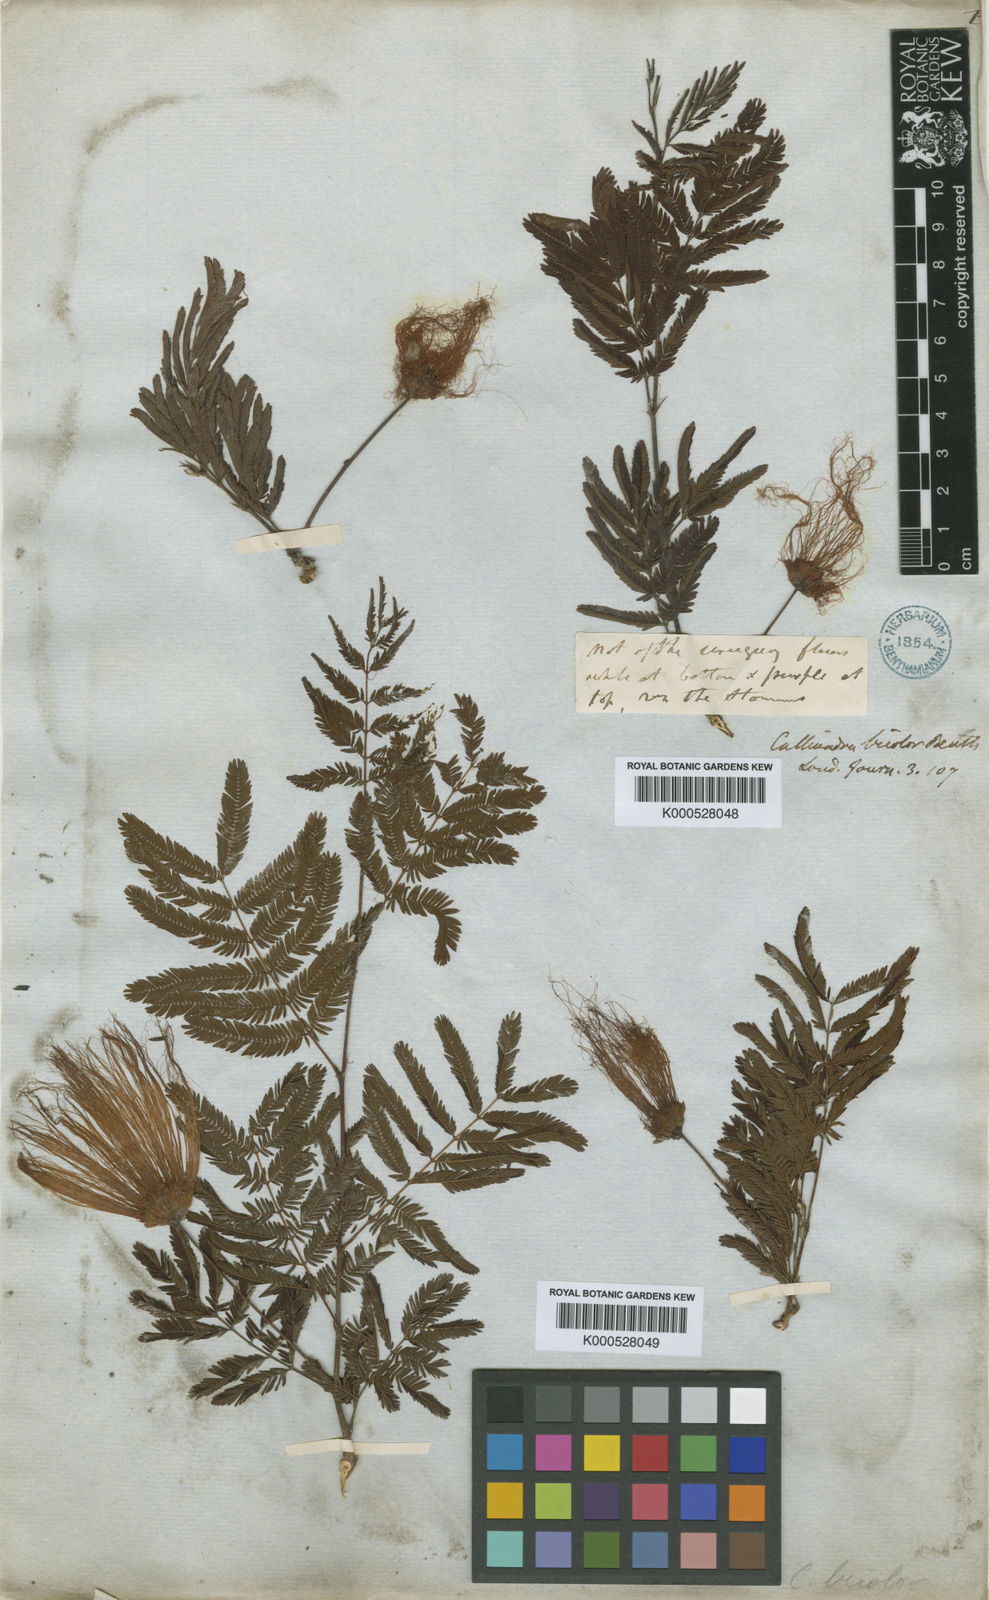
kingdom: Plantae
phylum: Tracheophyta
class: Magnoliopsida
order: Fabales
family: Fabaceae
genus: Calliandra
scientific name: Calliandra parvifolia
